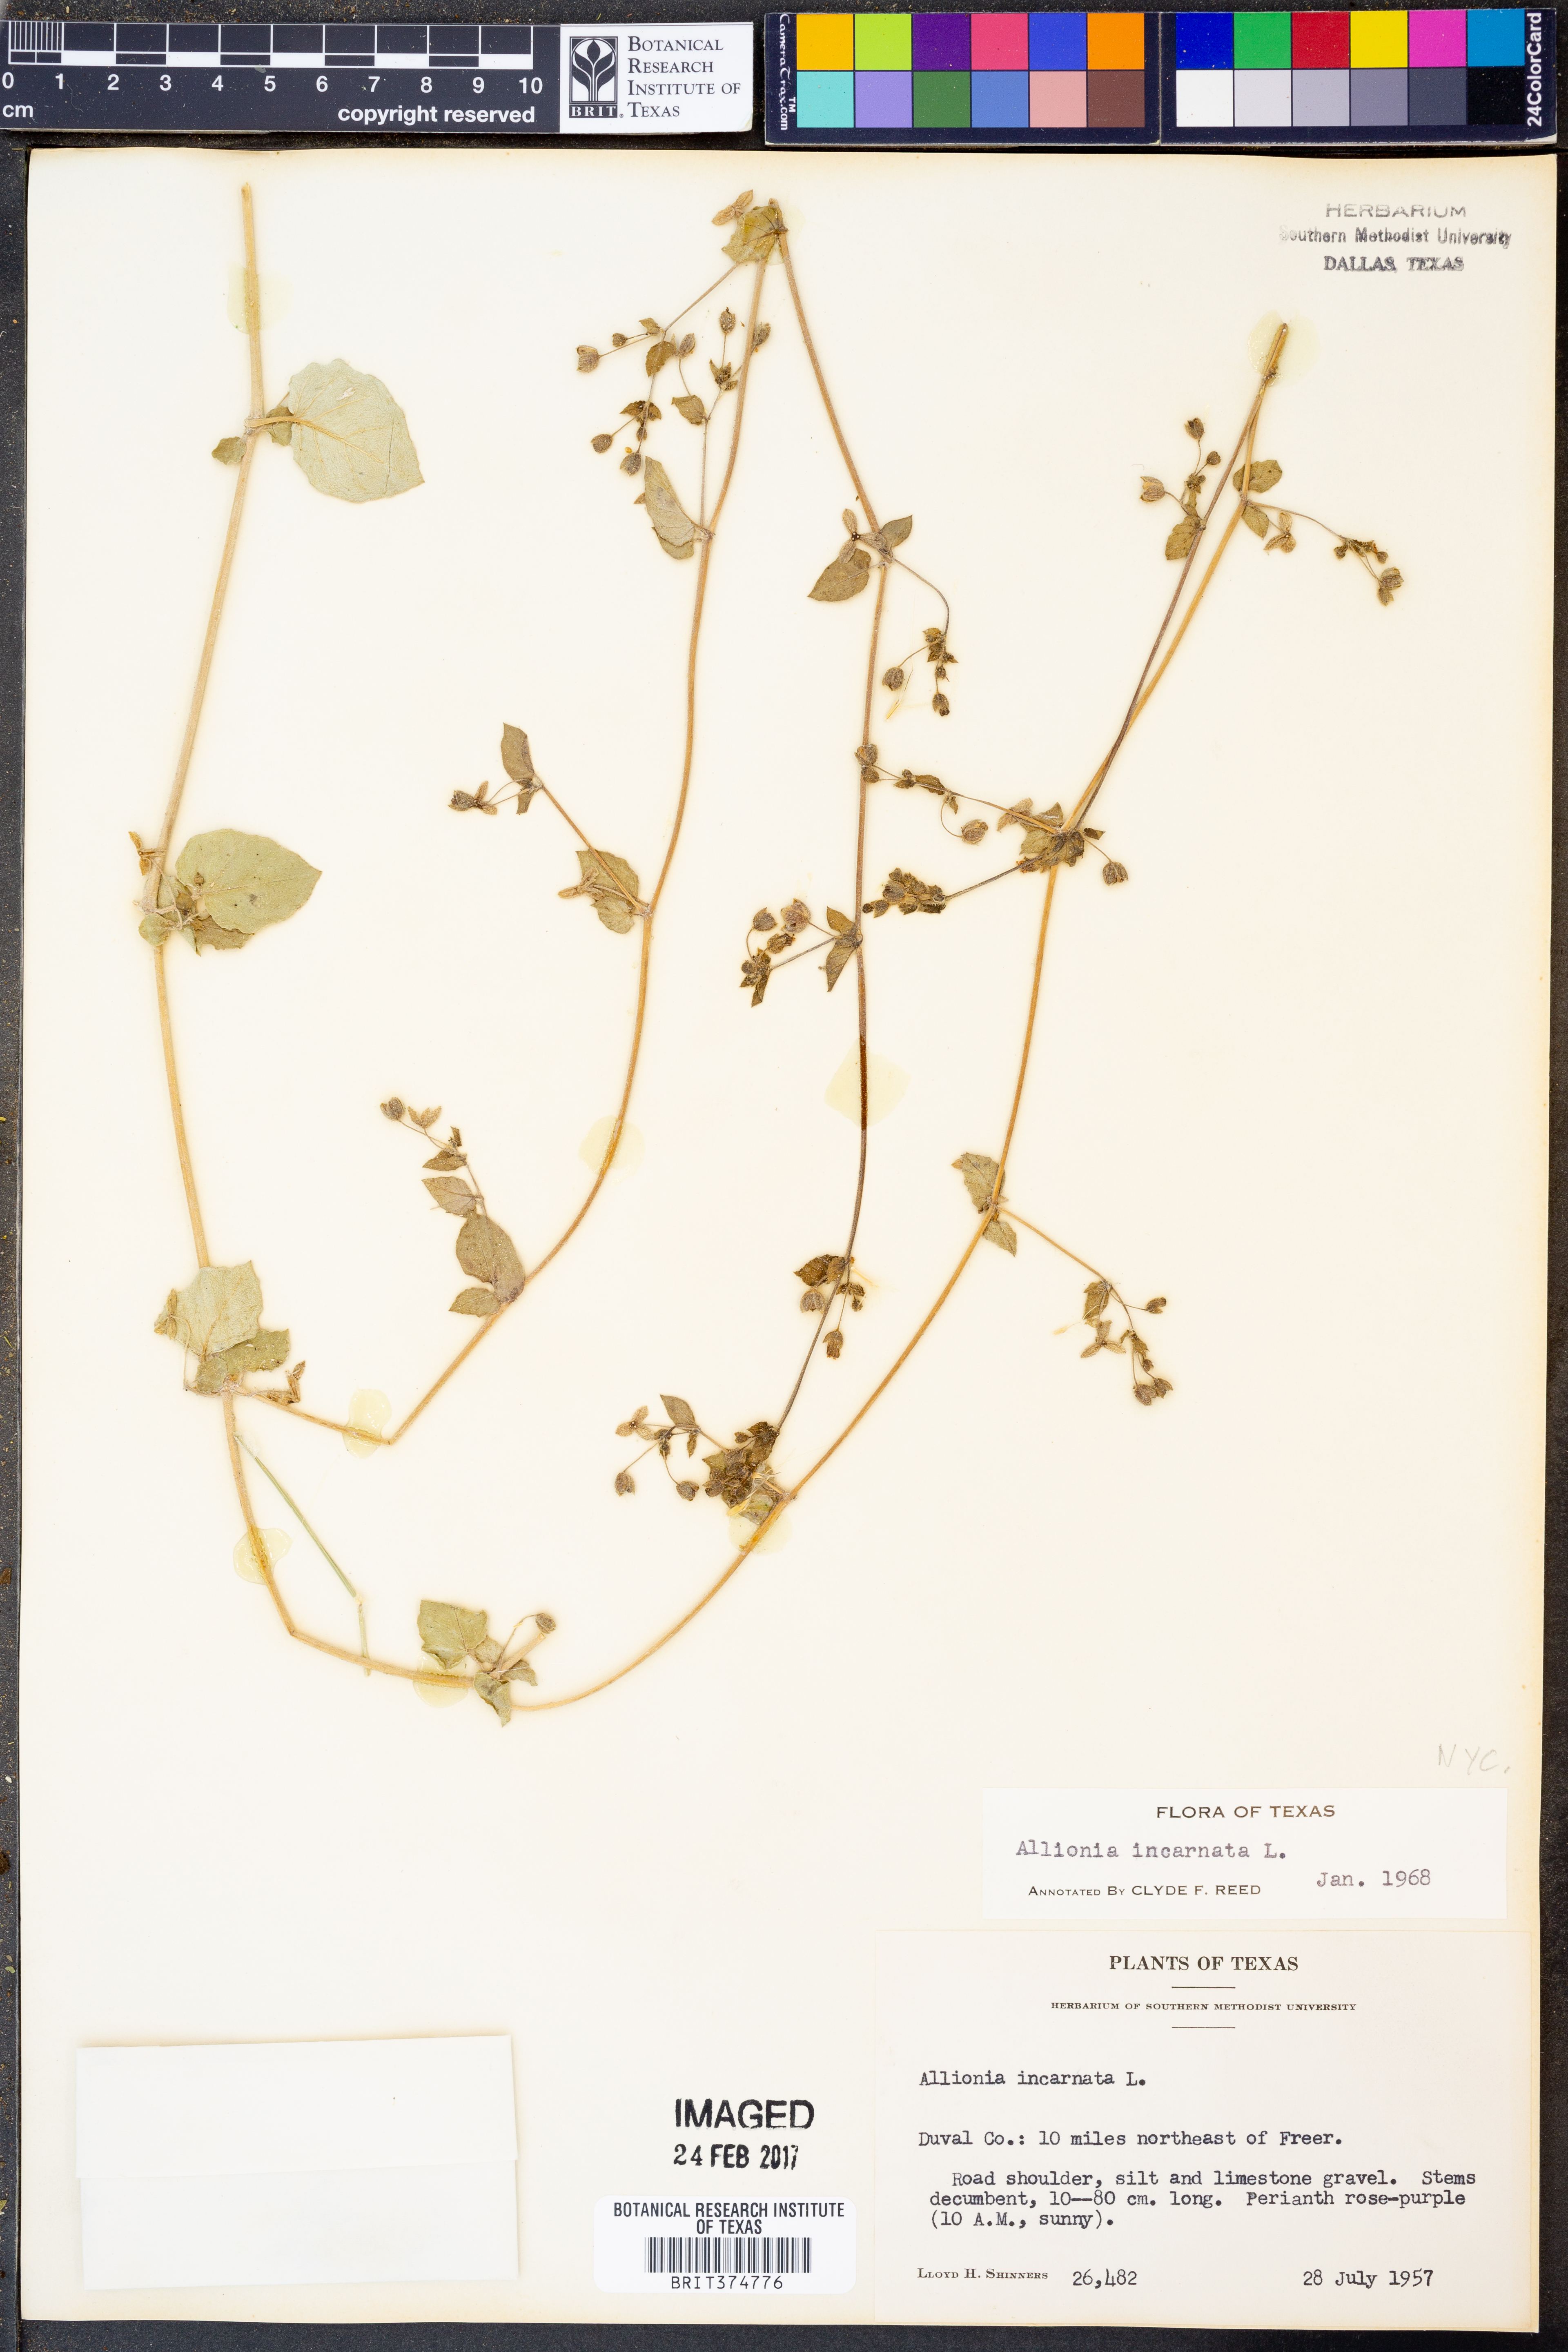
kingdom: Plantae
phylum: Tracheophyta
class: Magnoliopsida
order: Caryophyllales
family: Nyctaginaceae
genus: Allionia
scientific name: Allionia incarnata
